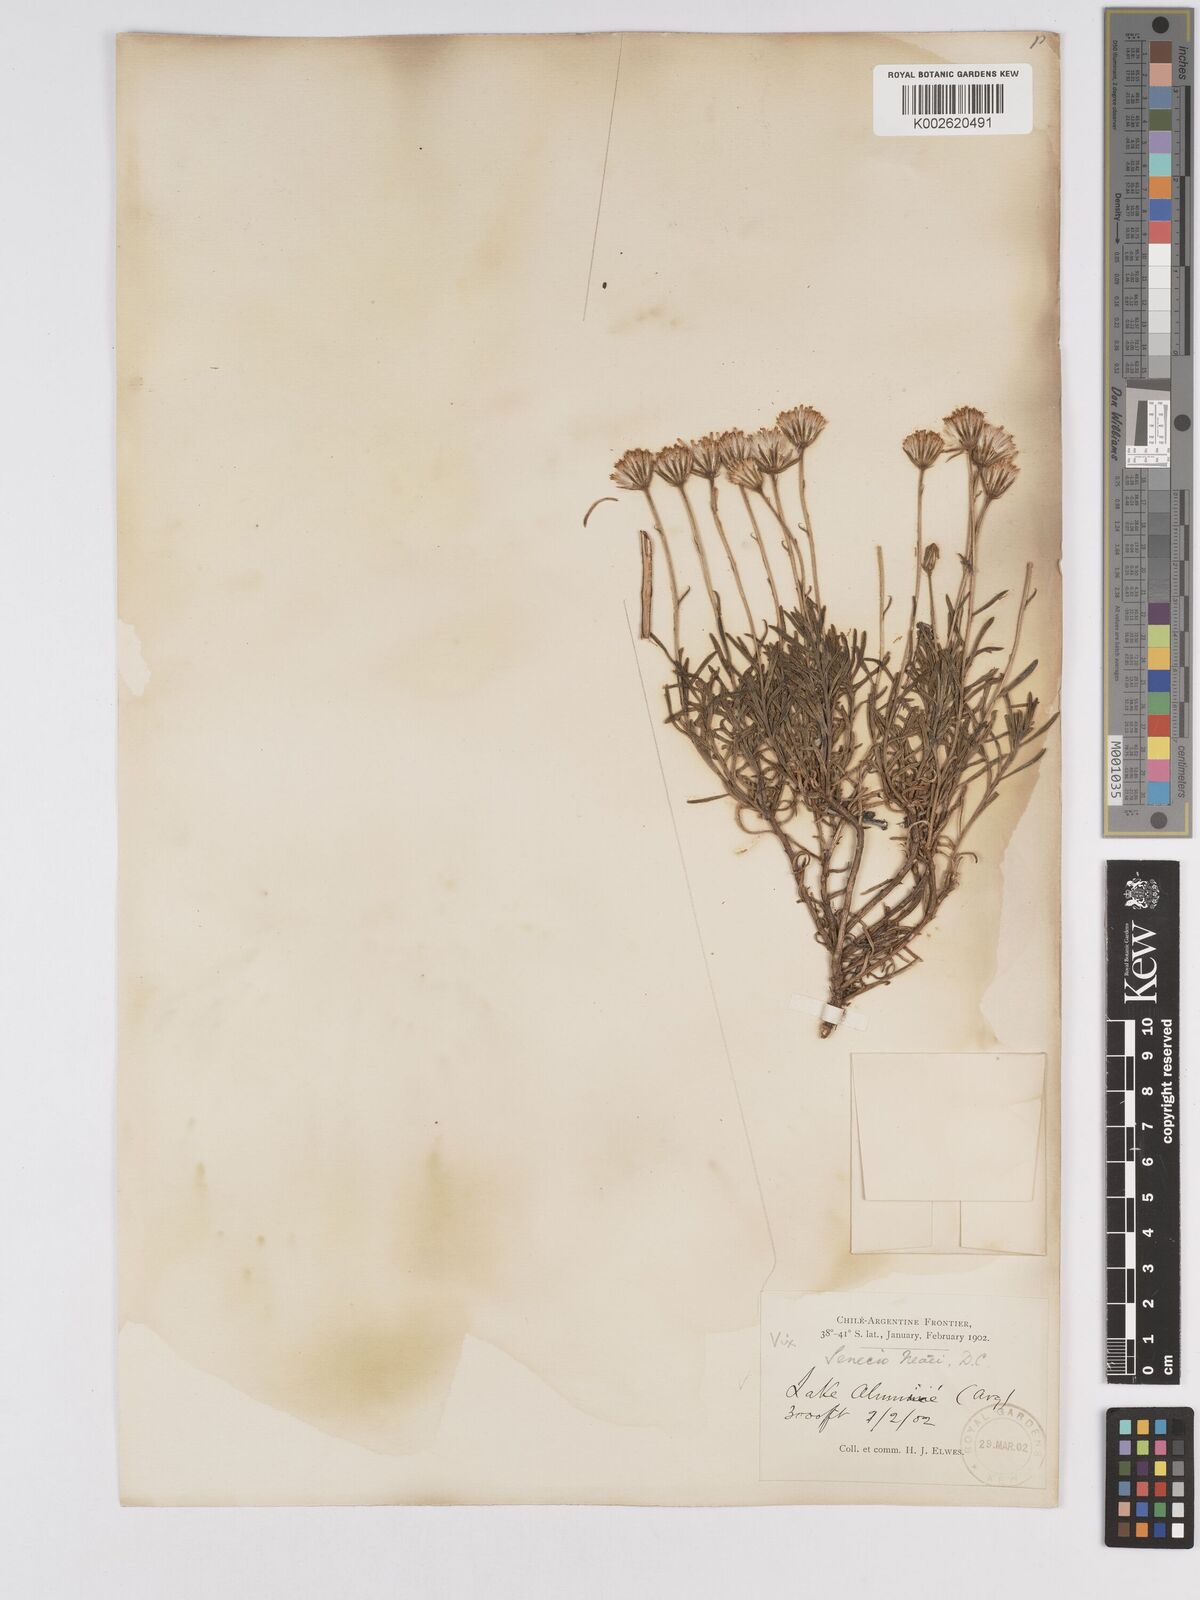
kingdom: Plantae
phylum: Tracheophyta
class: Magnoliopsida
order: Asterales
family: Asteraceae
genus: Senecio
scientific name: Senecio tricuspidatus
